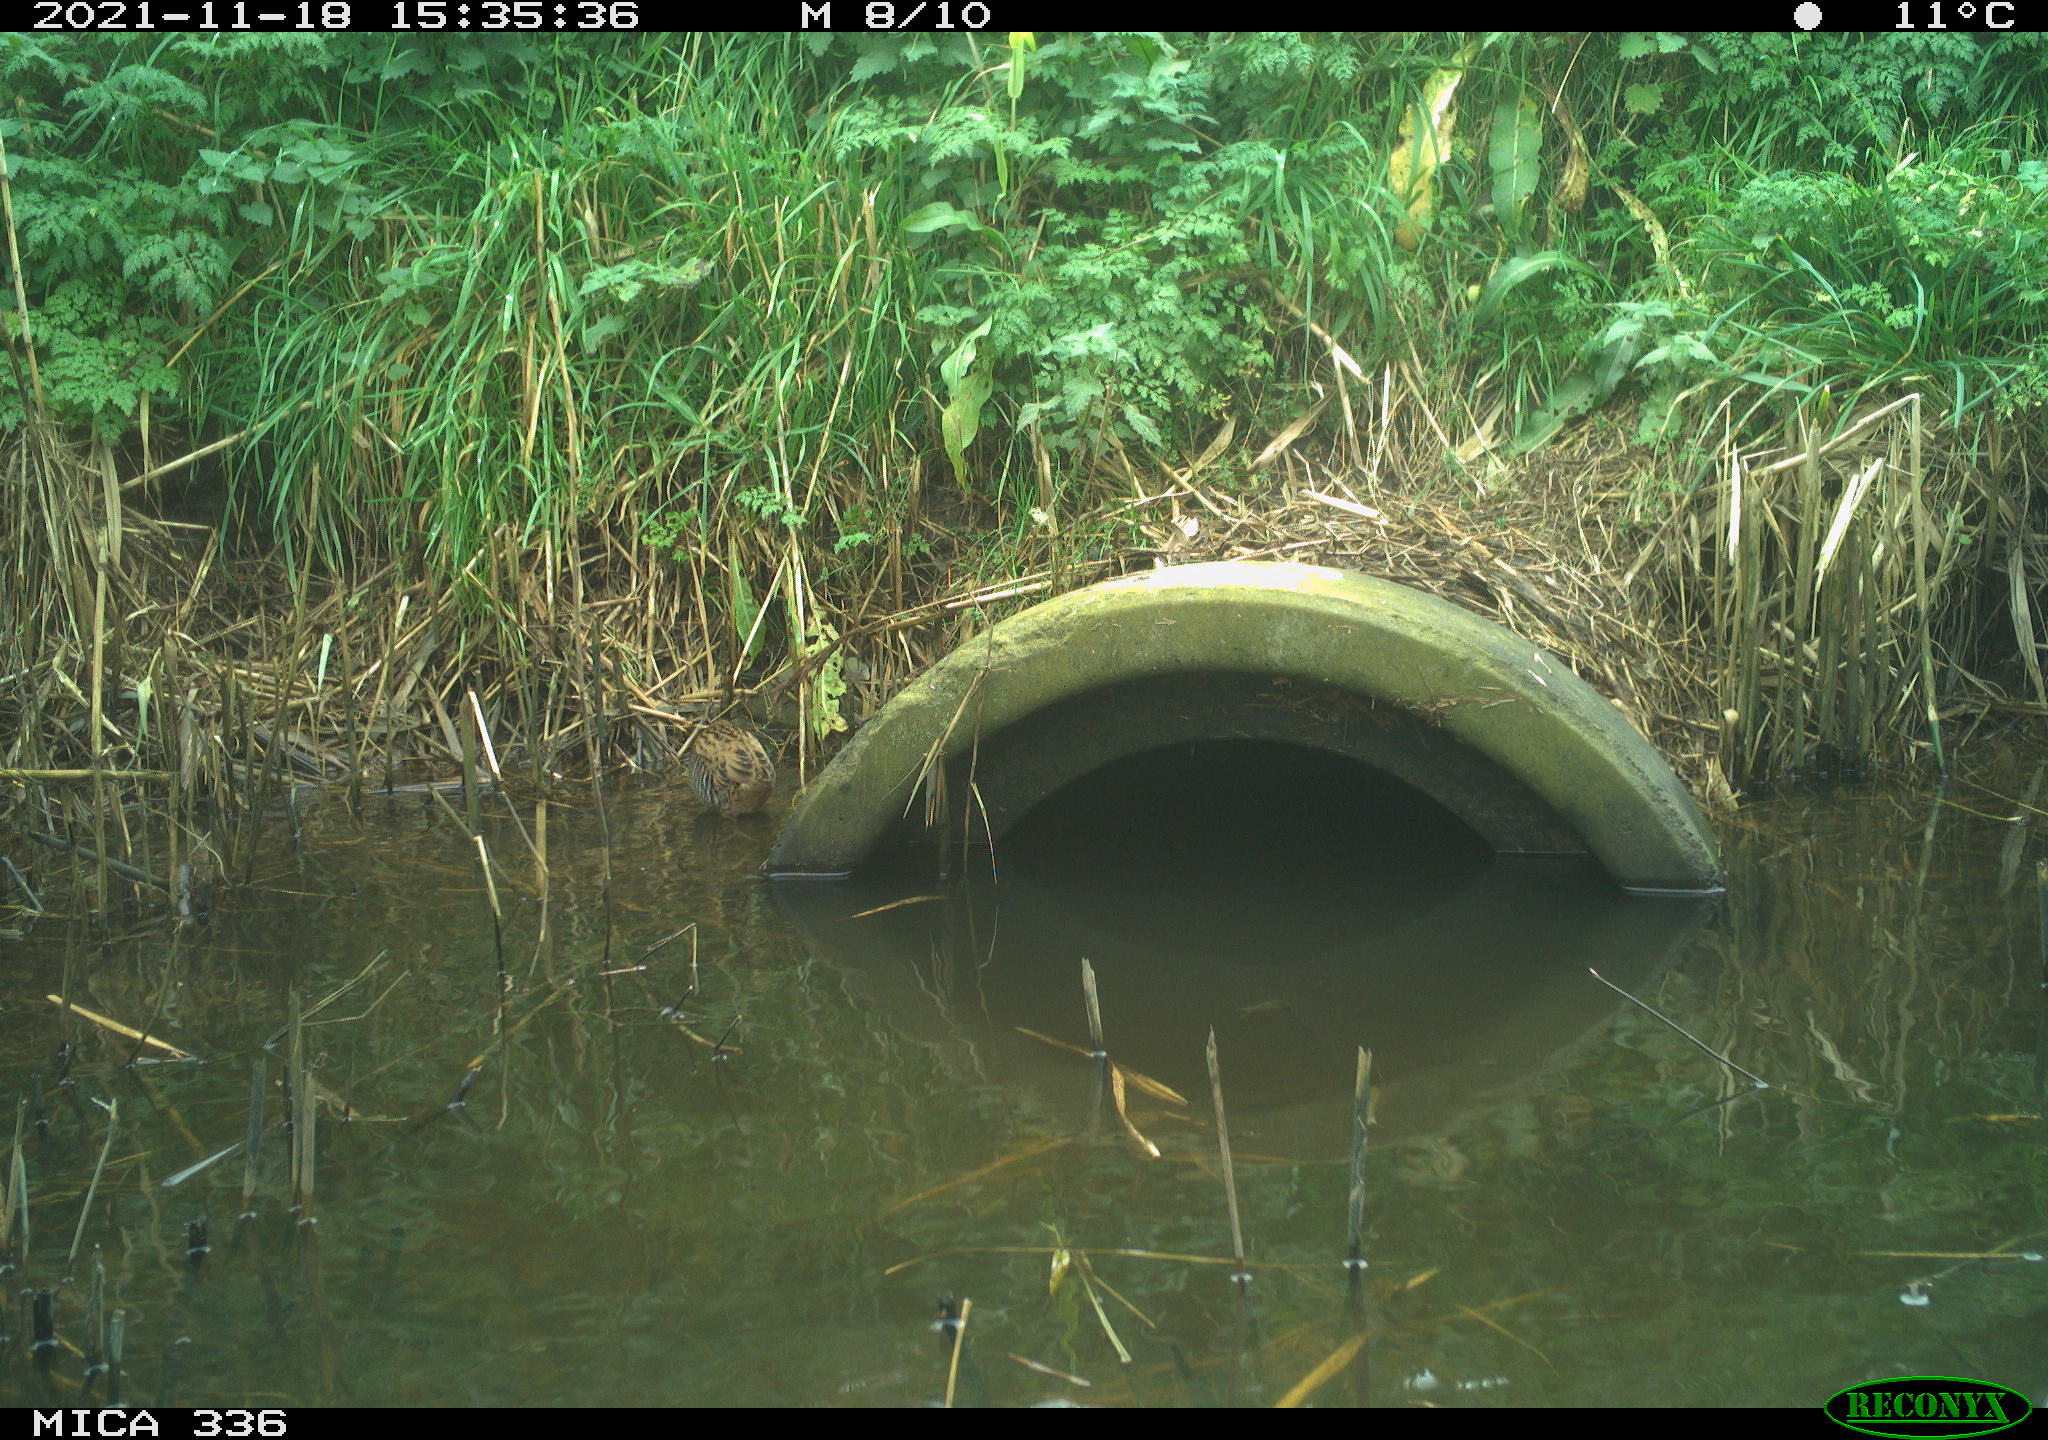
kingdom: Animalia
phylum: Chordata
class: Aves
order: Gruiformes
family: Rallidae
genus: Gallinula
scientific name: Gallinula chloropus
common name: Common moorhen
